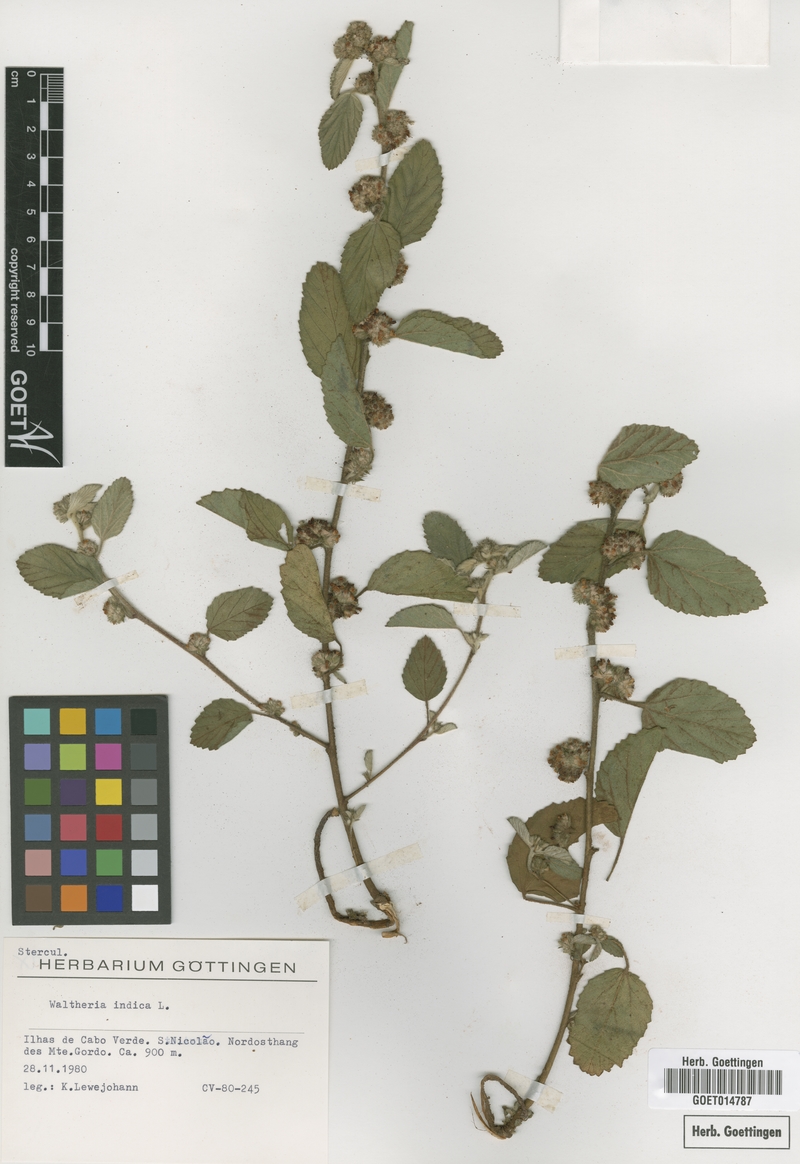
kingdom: Plantae
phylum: Tracheophyta
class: Magnoliopsida
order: Malvales
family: Malvaceae
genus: Waltheria
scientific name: Waltheria indica
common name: Leather-coat
